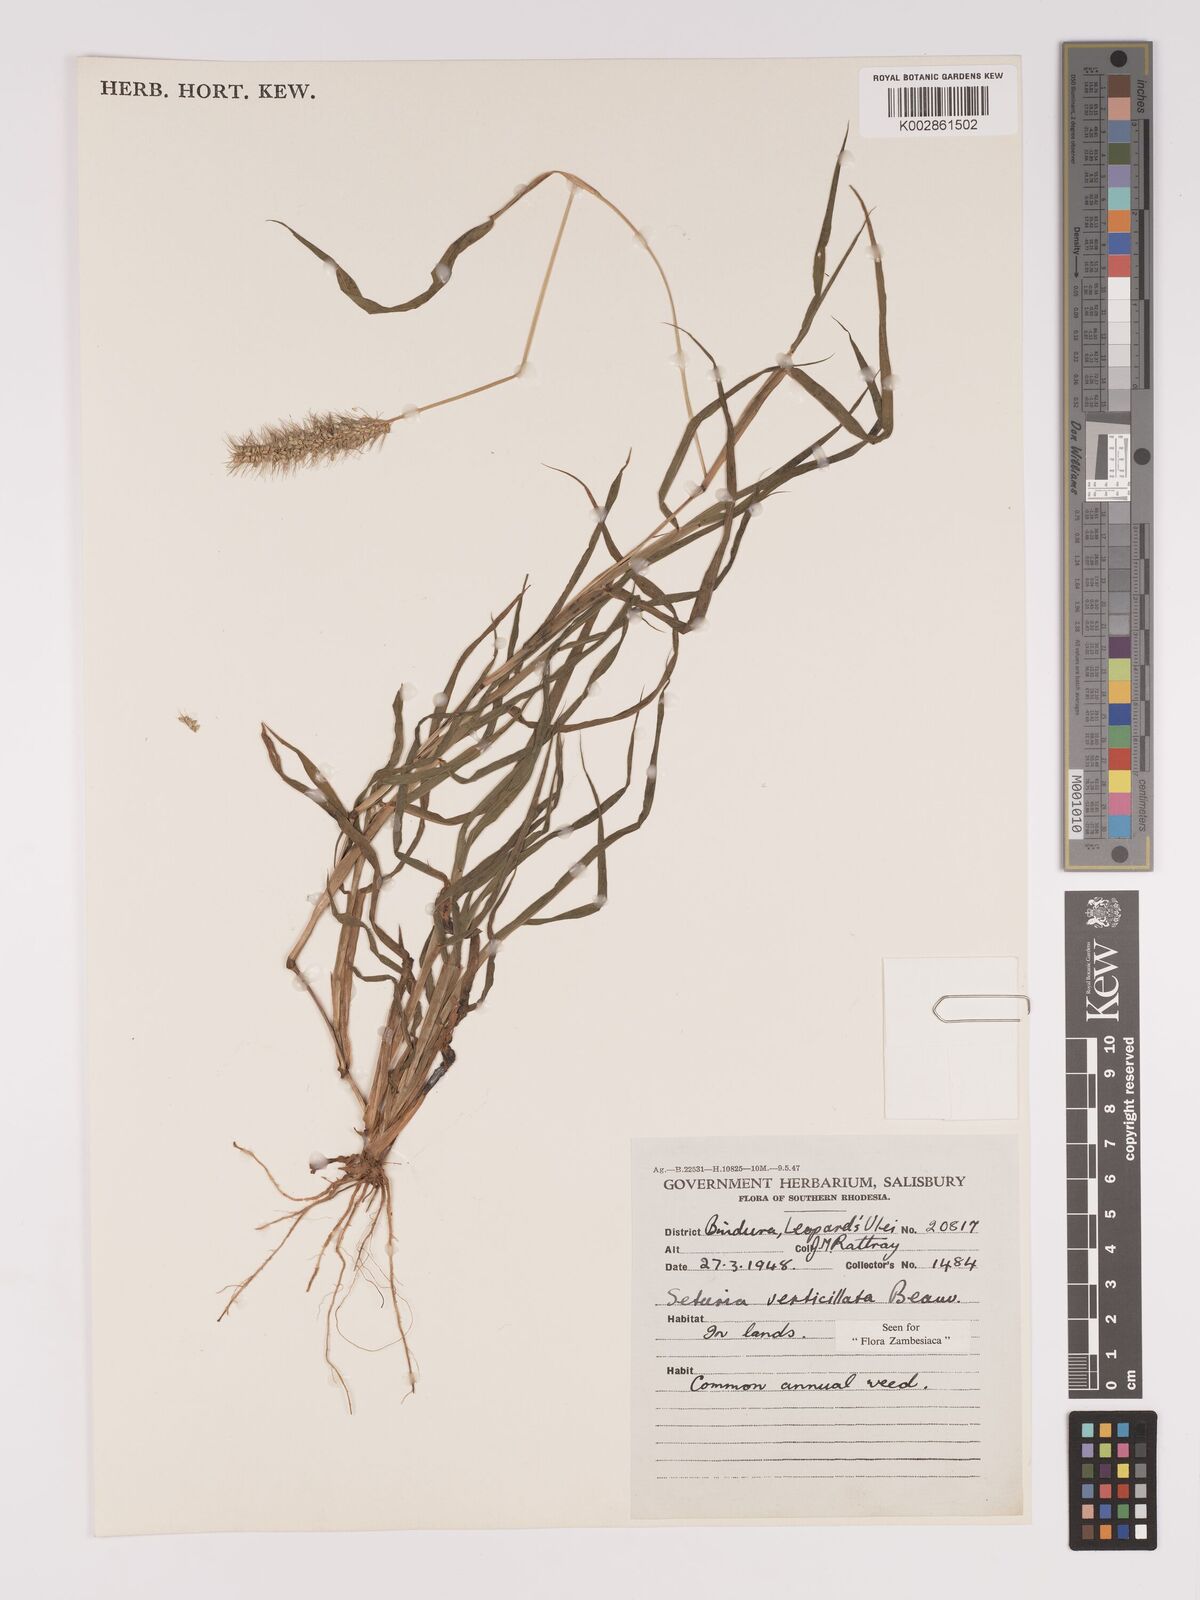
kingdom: Plantae
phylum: Tracheophyta
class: Liliopsida
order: Poales
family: Poaceae
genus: Setaria
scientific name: Setaria verticillata
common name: Hooked bristlegrass
